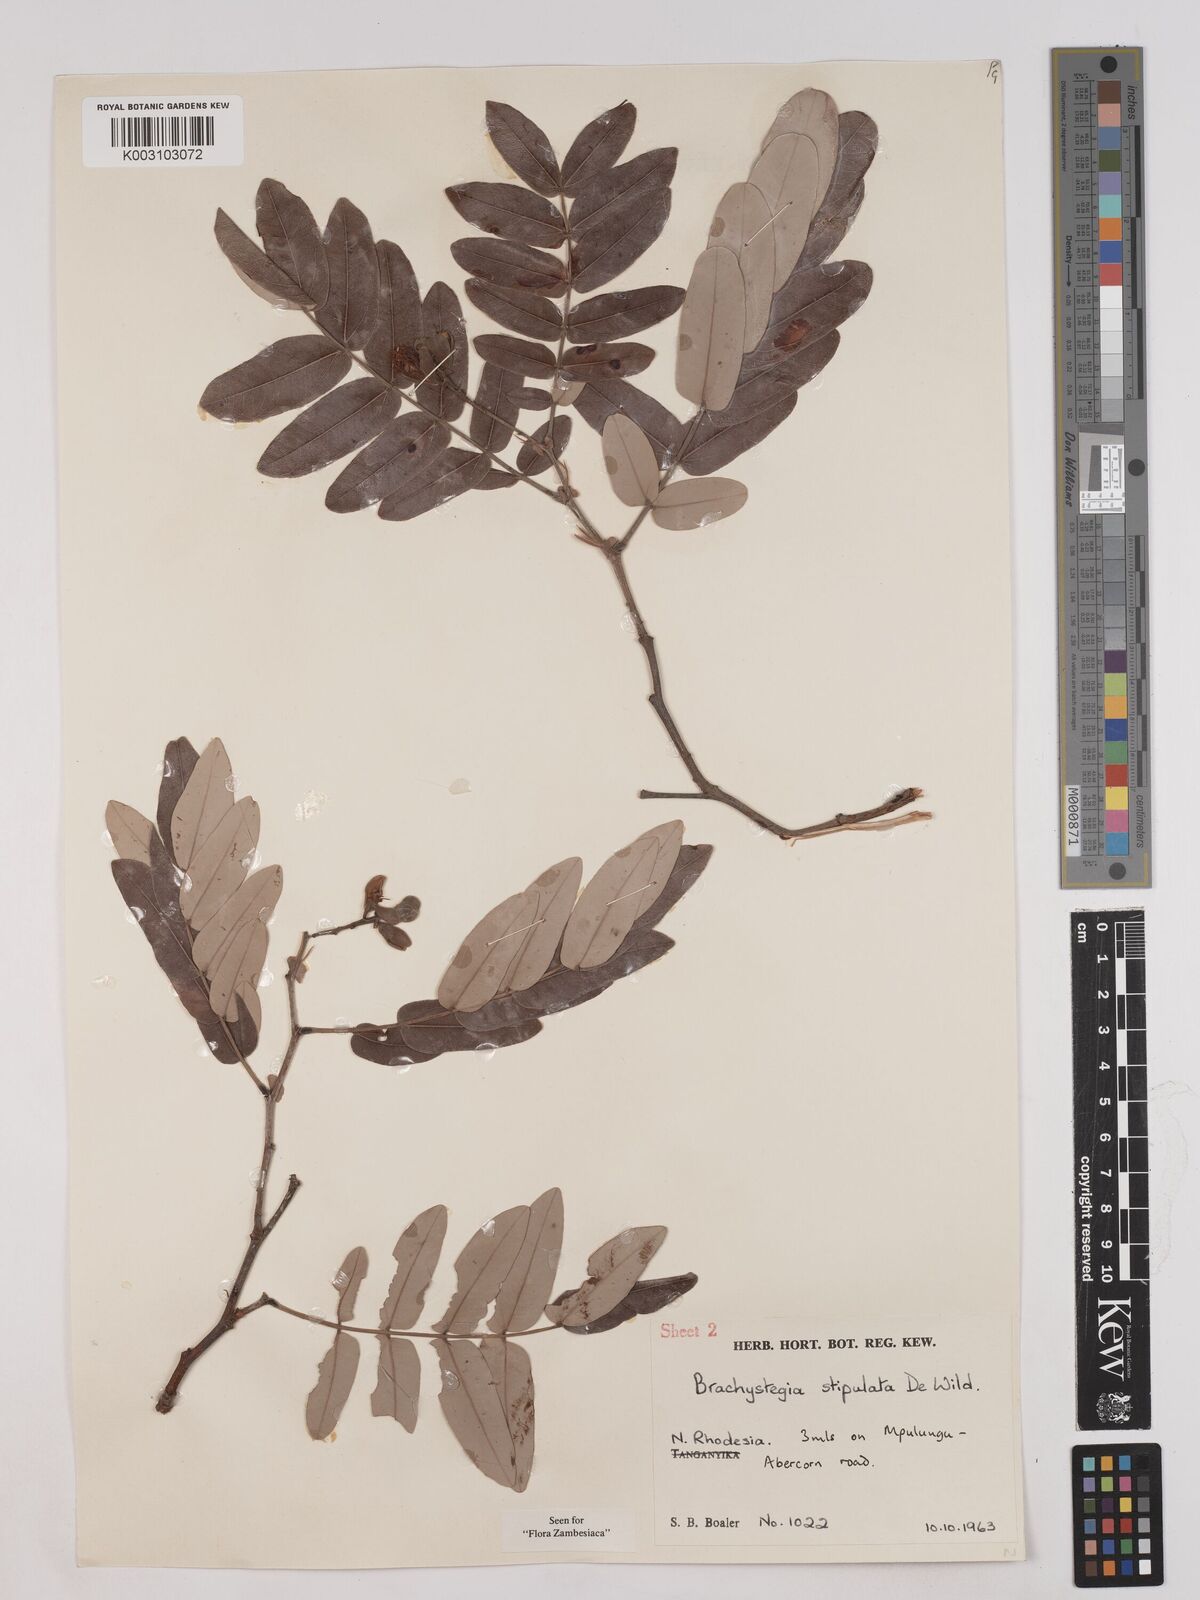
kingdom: Plantae
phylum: Tracheophyta
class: Magnoliopsida
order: Fabales
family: Fabaceae
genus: Brachystegia
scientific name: Brachystegia stipulata
